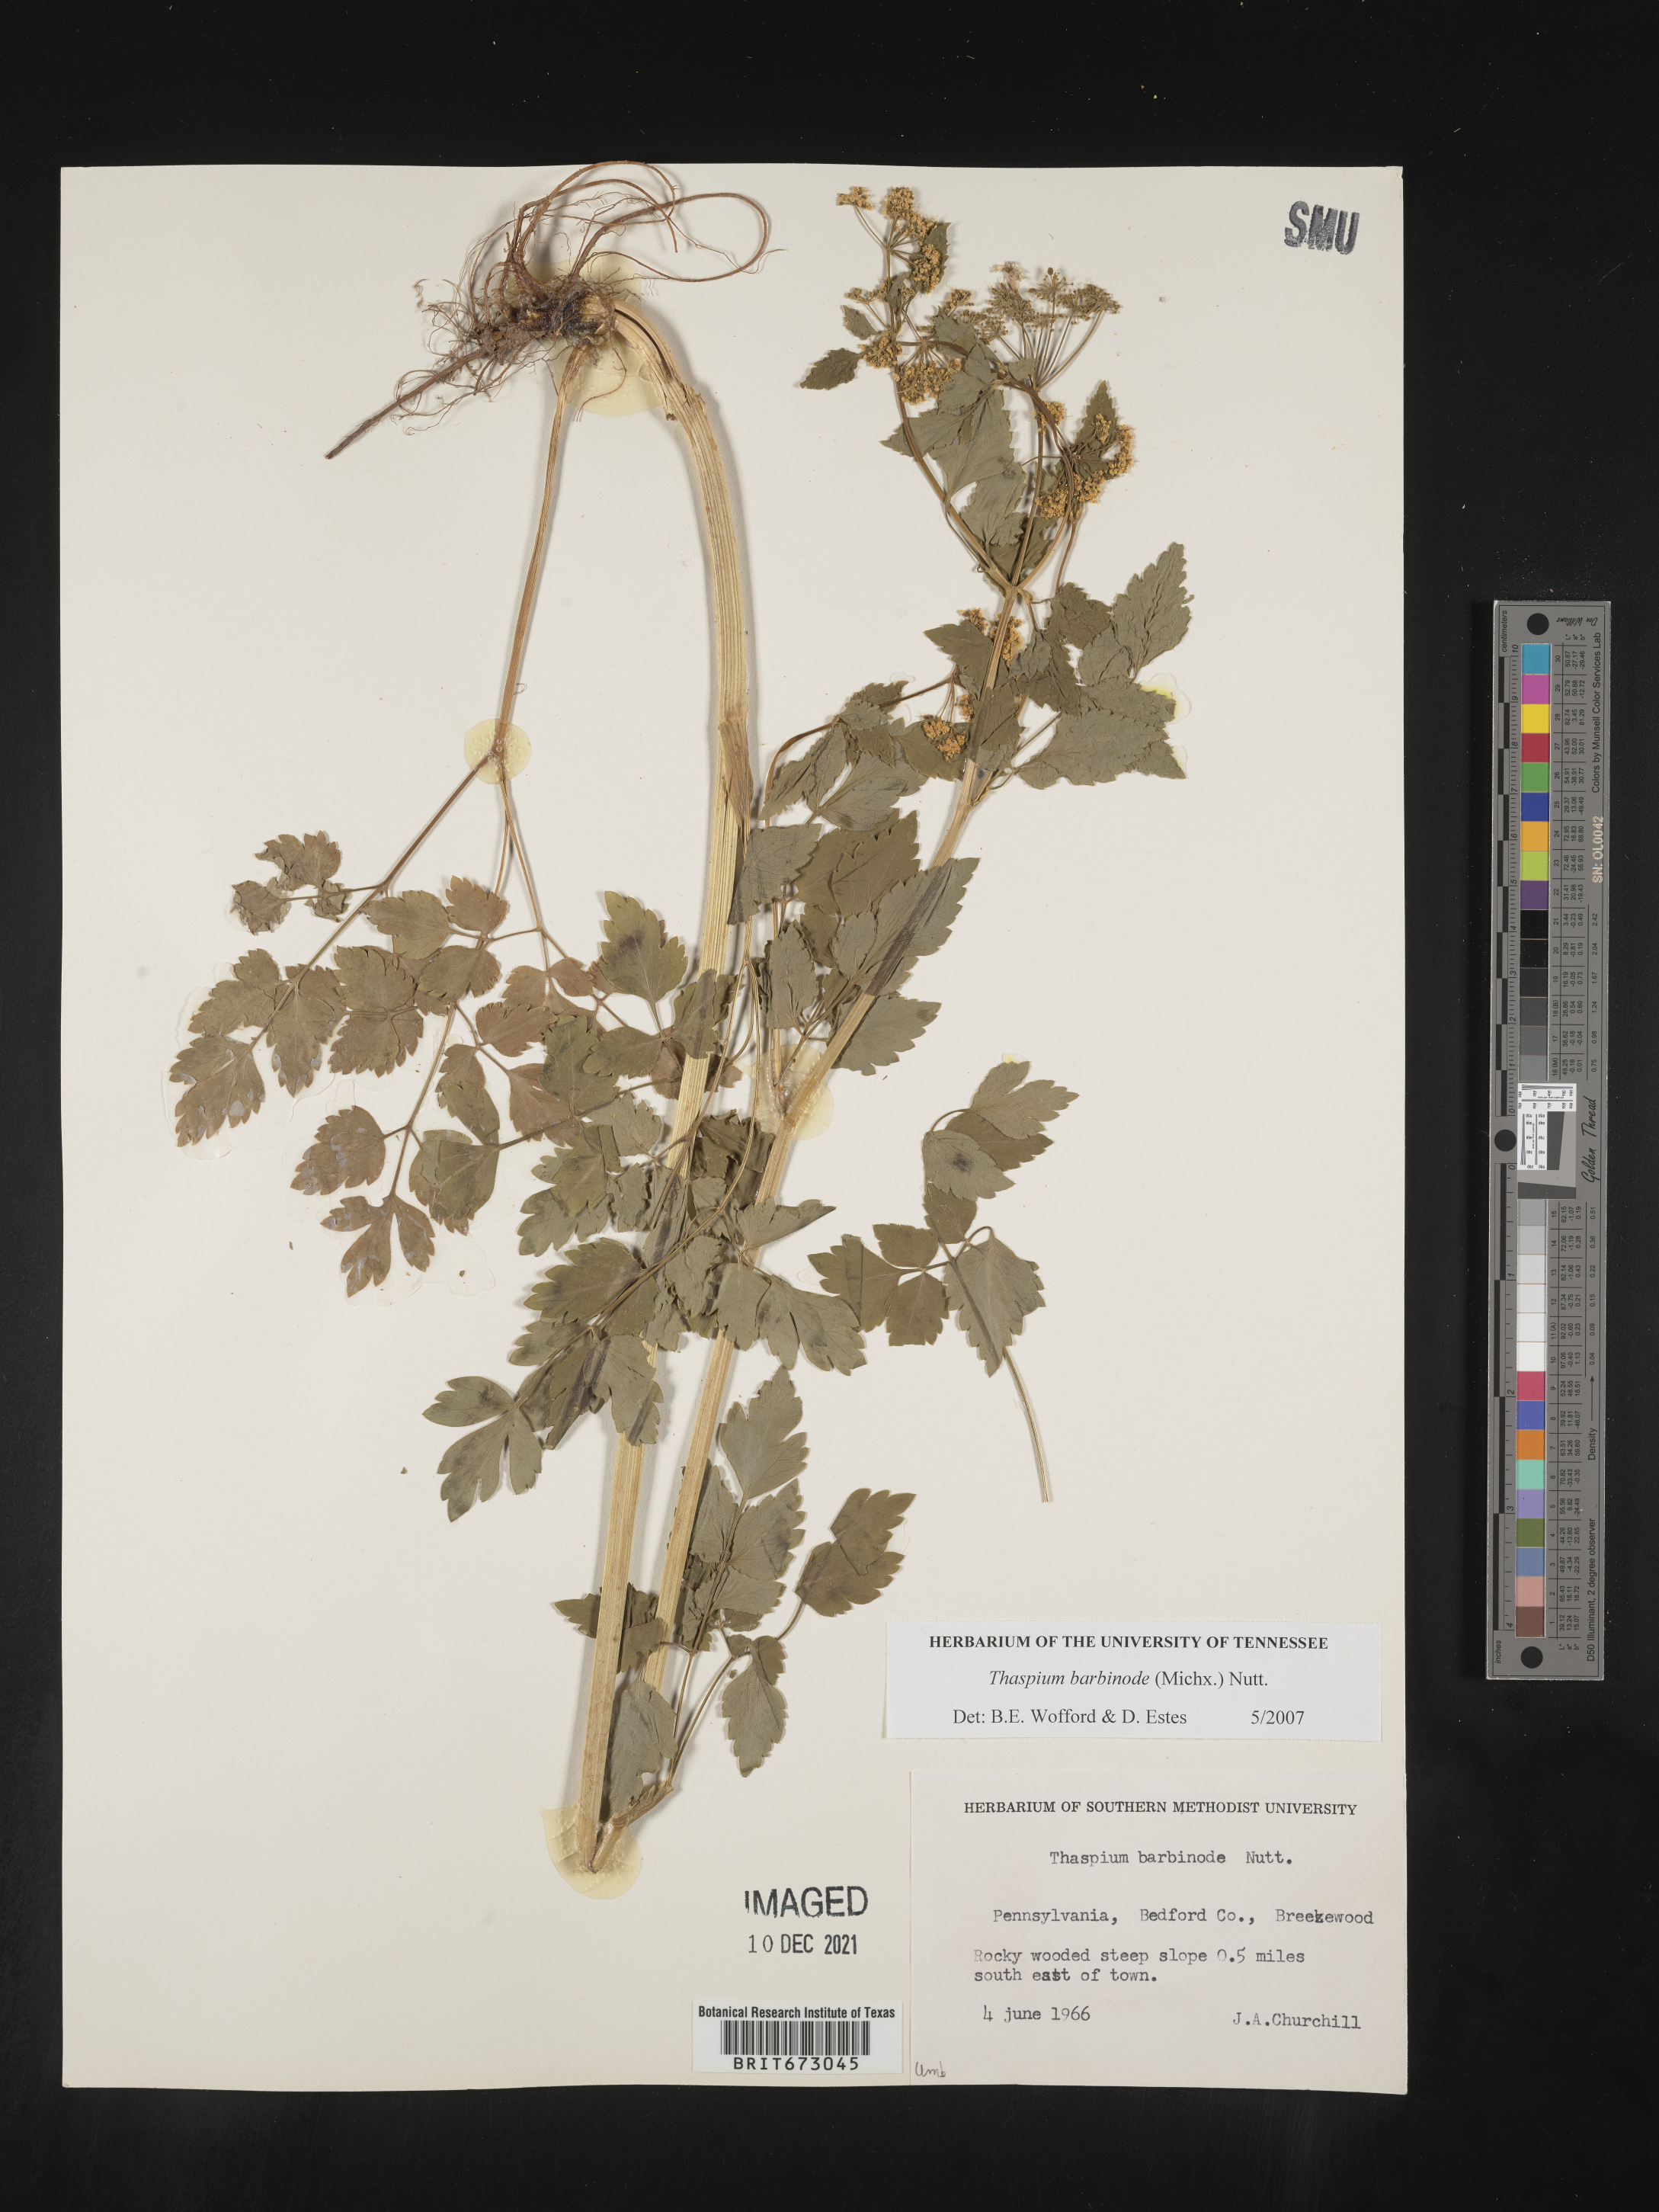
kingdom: Plantae
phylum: Tracheophyta
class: Magnoliopsida
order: Apiales
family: Apiaceae
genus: Thaspium
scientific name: Thaspium barbinode
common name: Bearded meadow-parsnip
